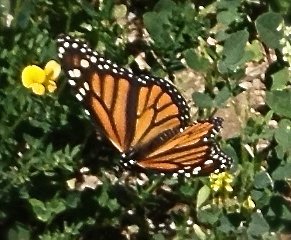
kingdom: Animalia
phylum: Arthropoda
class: Insecta
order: Lepidoptera
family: Nymphalidae
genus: Danaus
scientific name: Danaus plexippus
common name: Monarch
